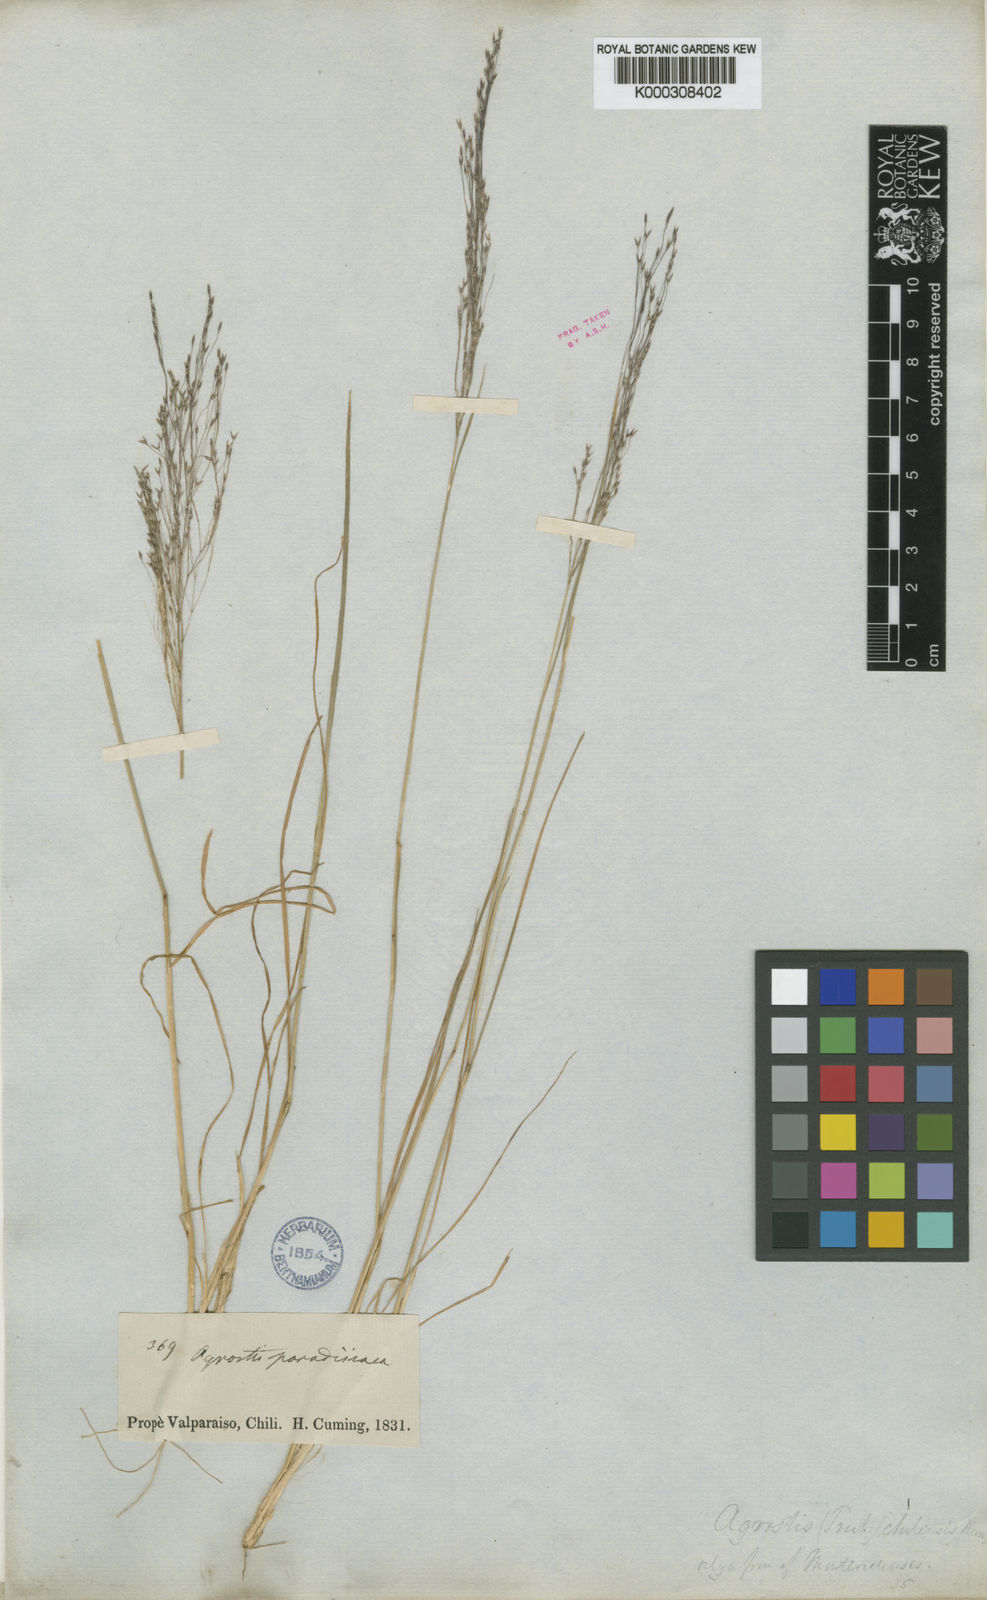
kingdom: Plantae
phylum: Tracheophyta
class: Liliopsida
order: Poales
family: Poaceae
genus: Agrostis
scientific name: Agrostis umbellata
